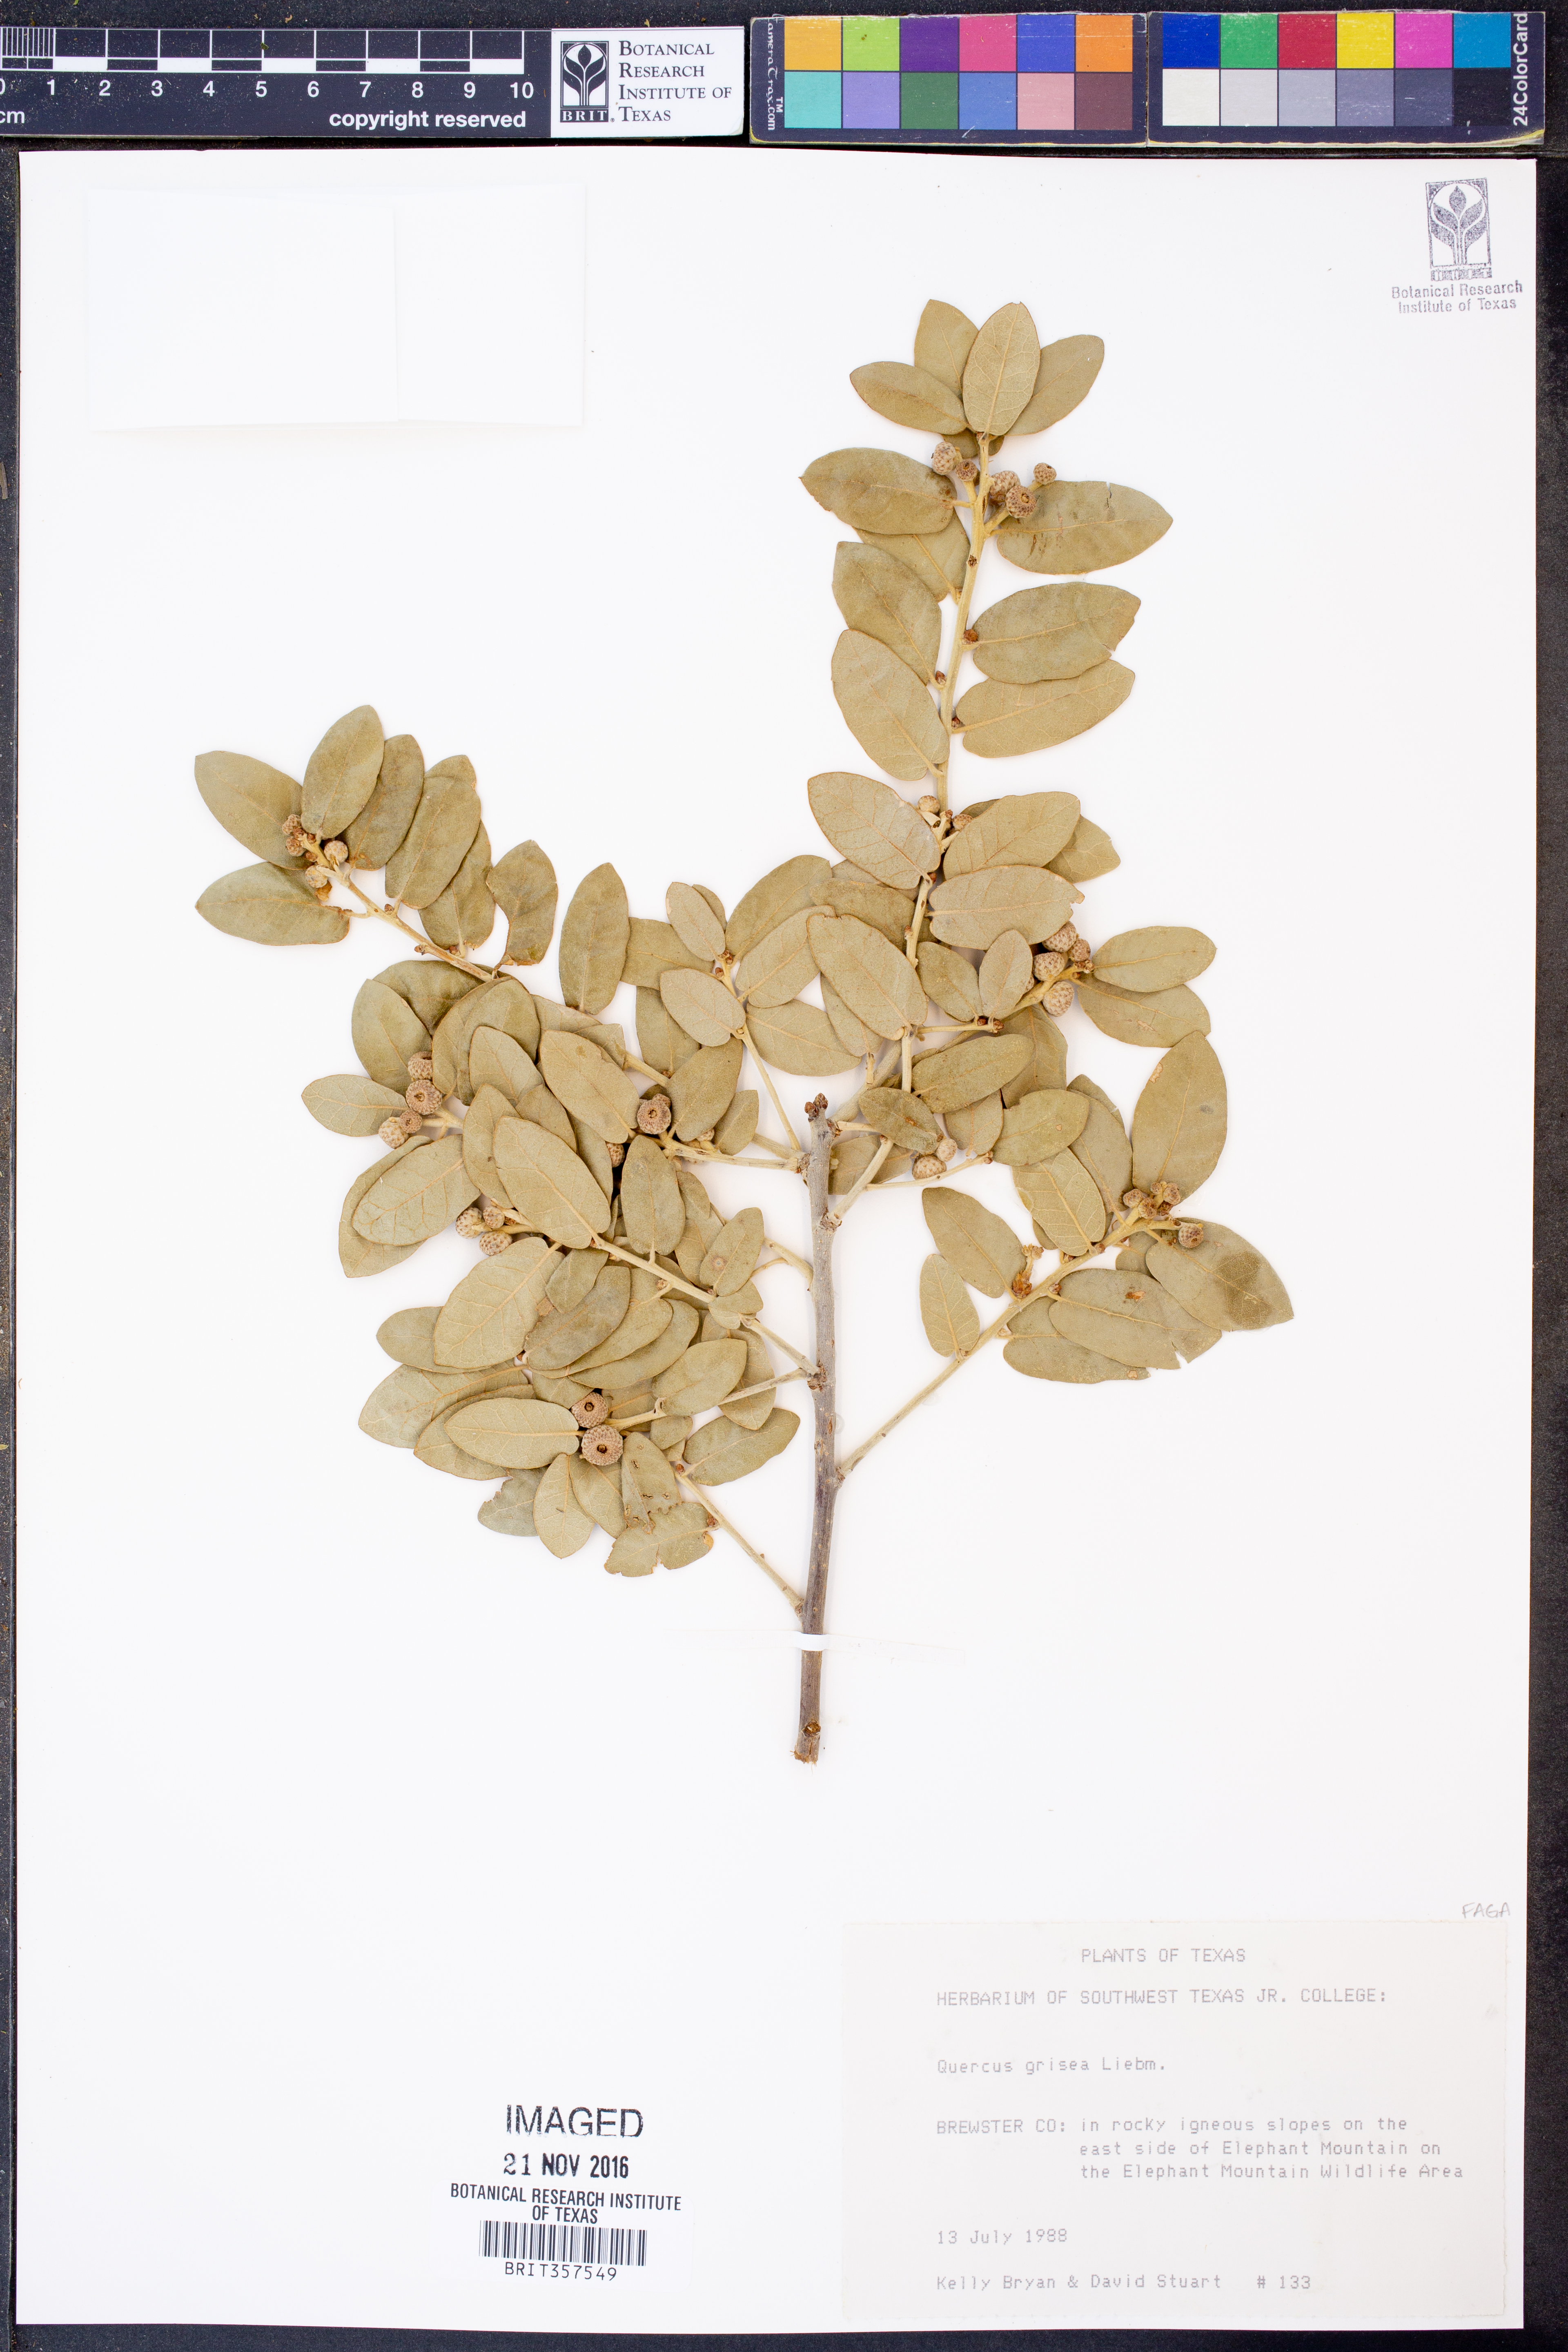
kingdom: Plantae
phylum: Tracheophyta
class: Magnoliopsida
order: Fagales
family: Fagaceae
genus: Quercus
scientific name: Quercus grisea
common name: Gray oak
